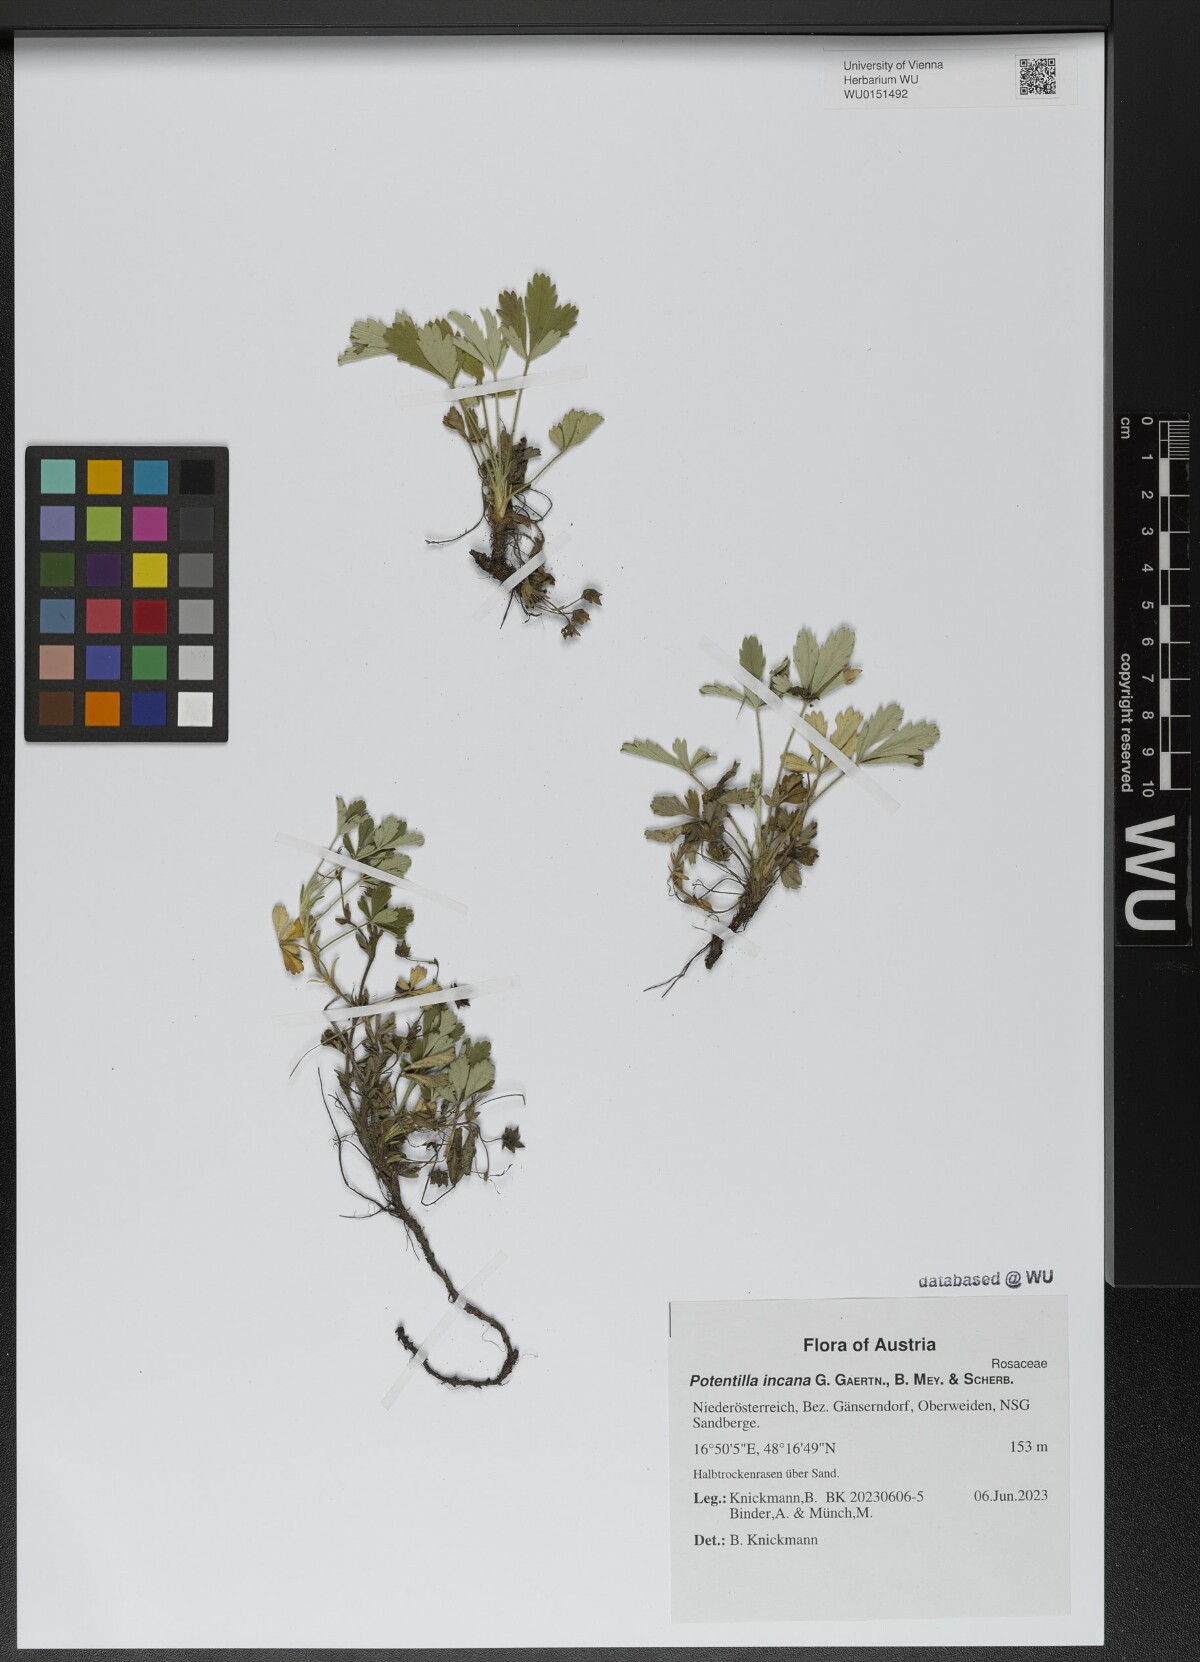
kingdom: Plantae
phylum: Tracheophyta
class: Magnoliopsida
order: Rosales
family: Rosaceae
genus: Potentilla
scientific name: Potentilla cinerea
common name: Ashy cinquefoil
